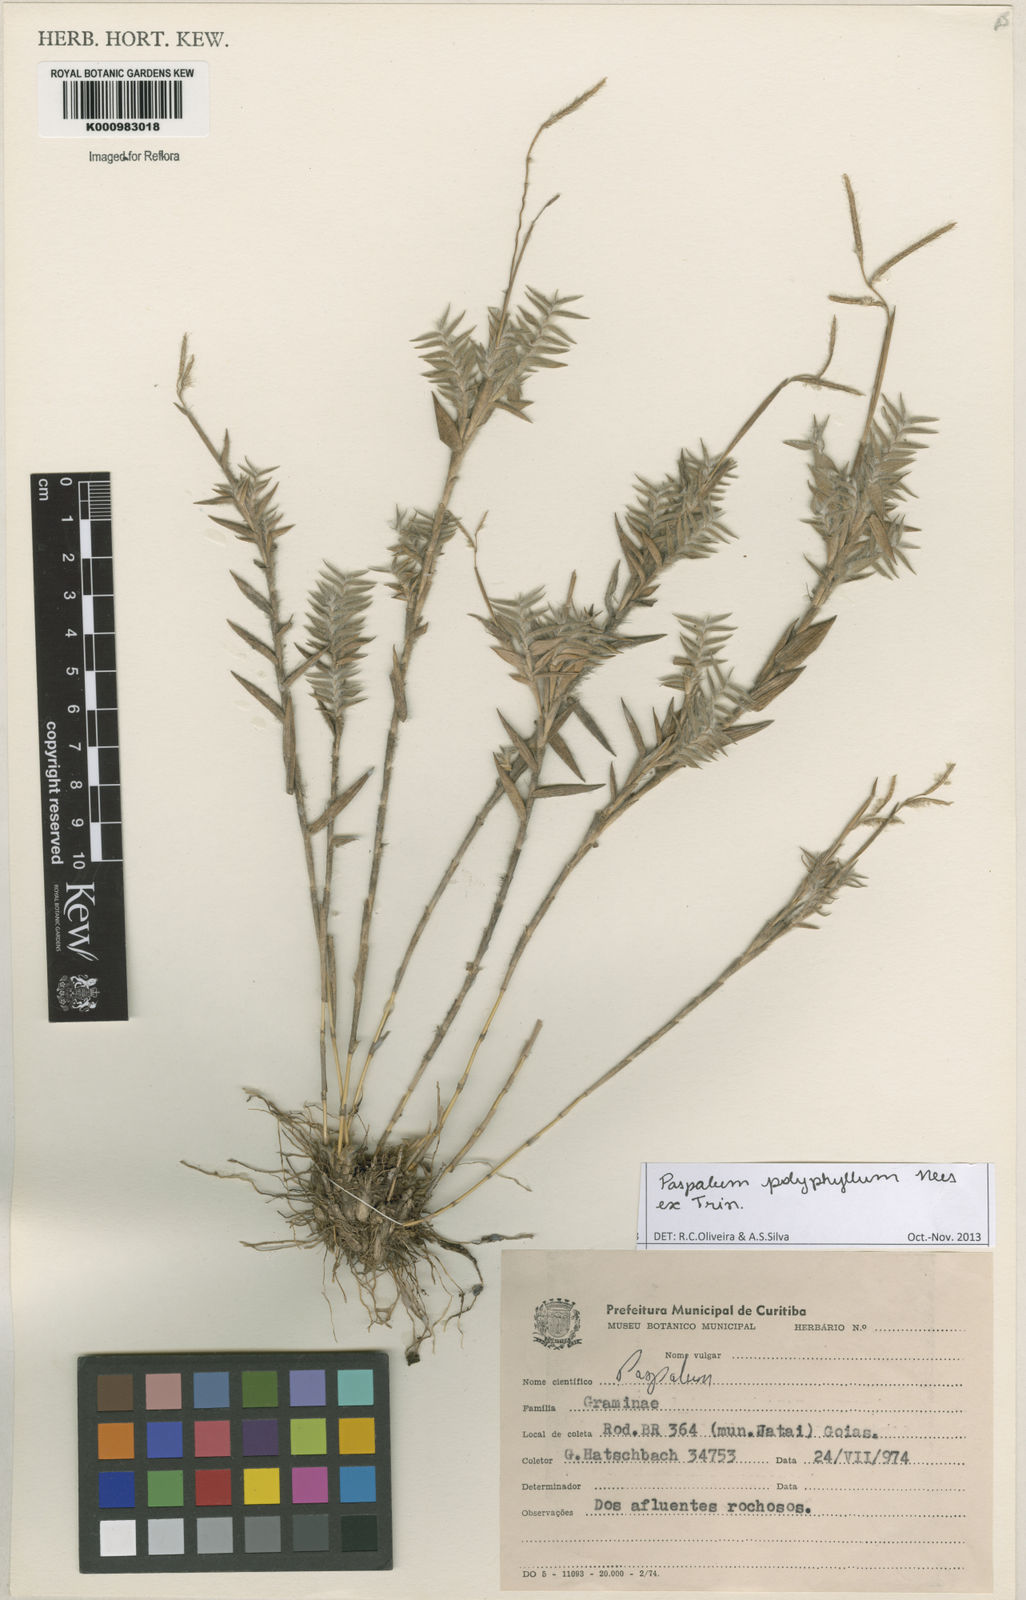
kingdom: Plantae
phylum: Tracheophyta
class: Liliopsida
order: Poales
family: Poaceae
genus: Paspalum
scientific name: Paspalum
